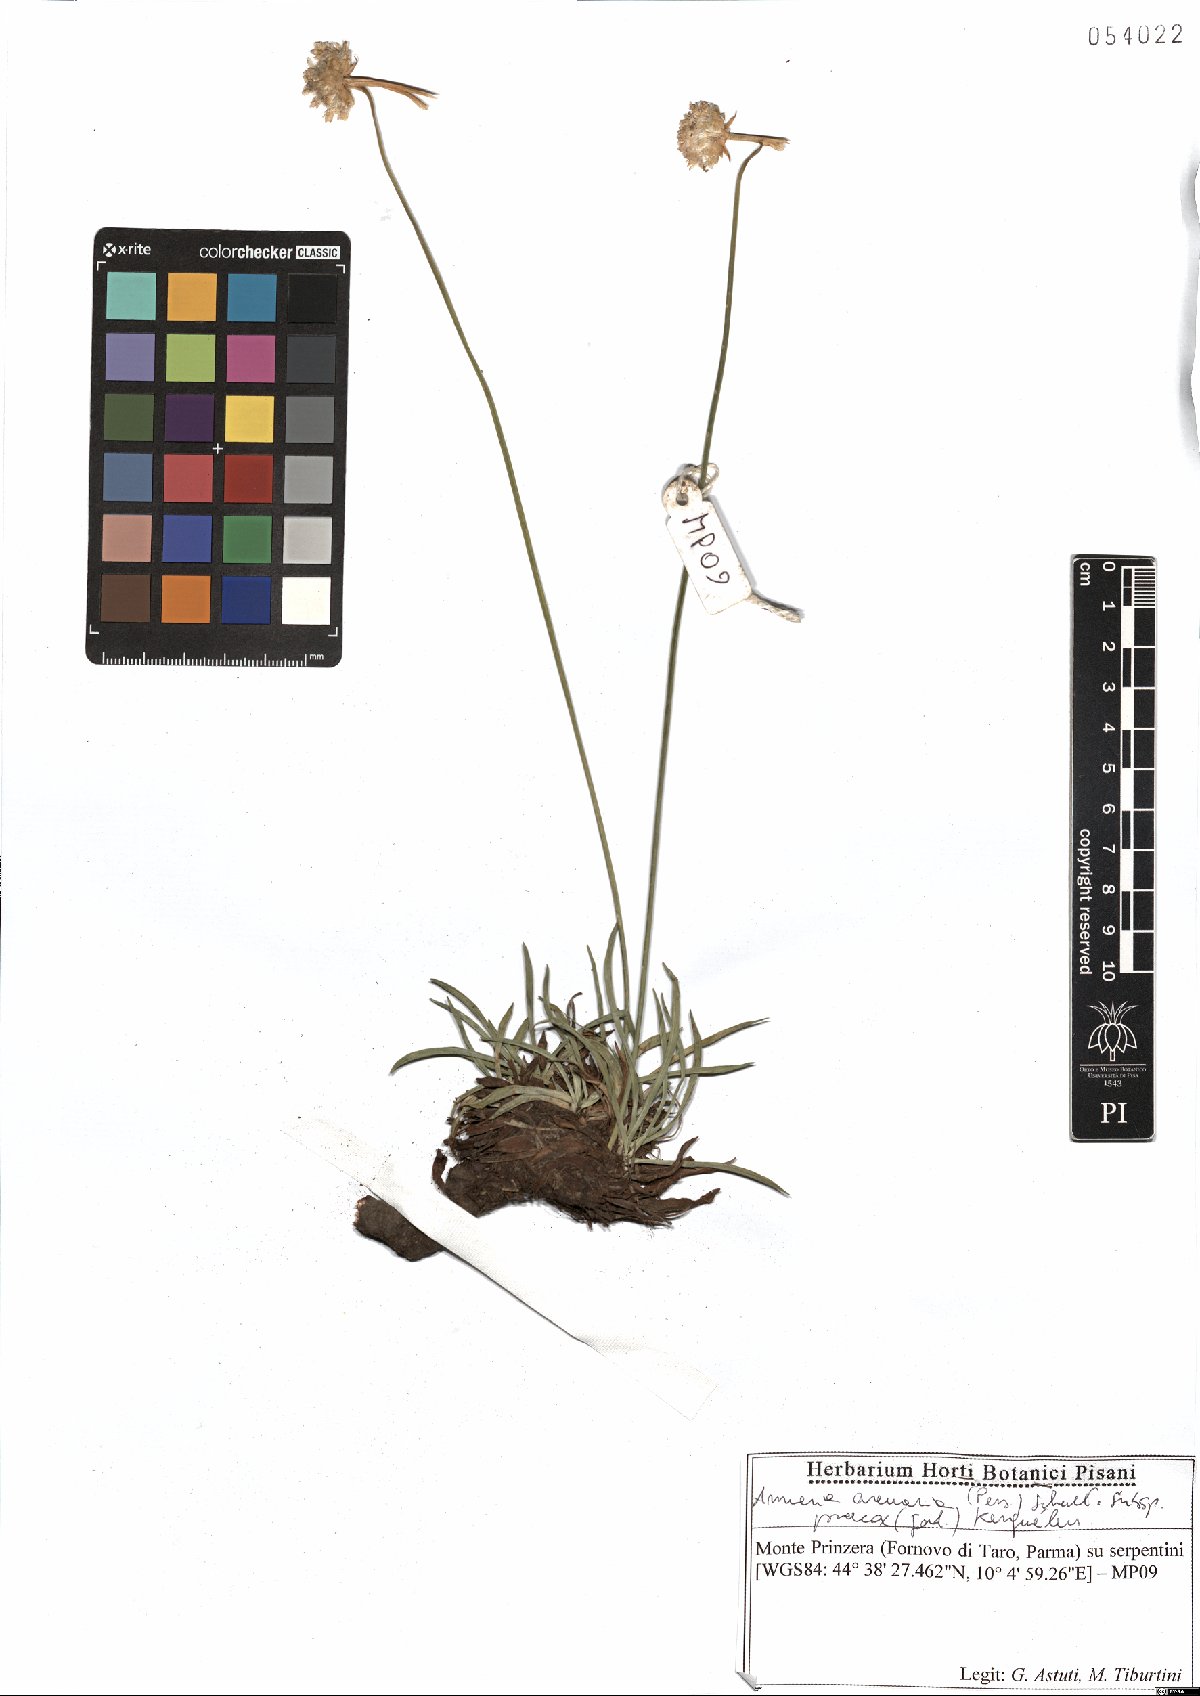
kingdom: Plantae
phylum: Tracheophyta
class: Magnoliopsida
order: Caryophyllales
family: Plumbaginaceae
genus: Armeria
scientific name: Armeria arenaria
